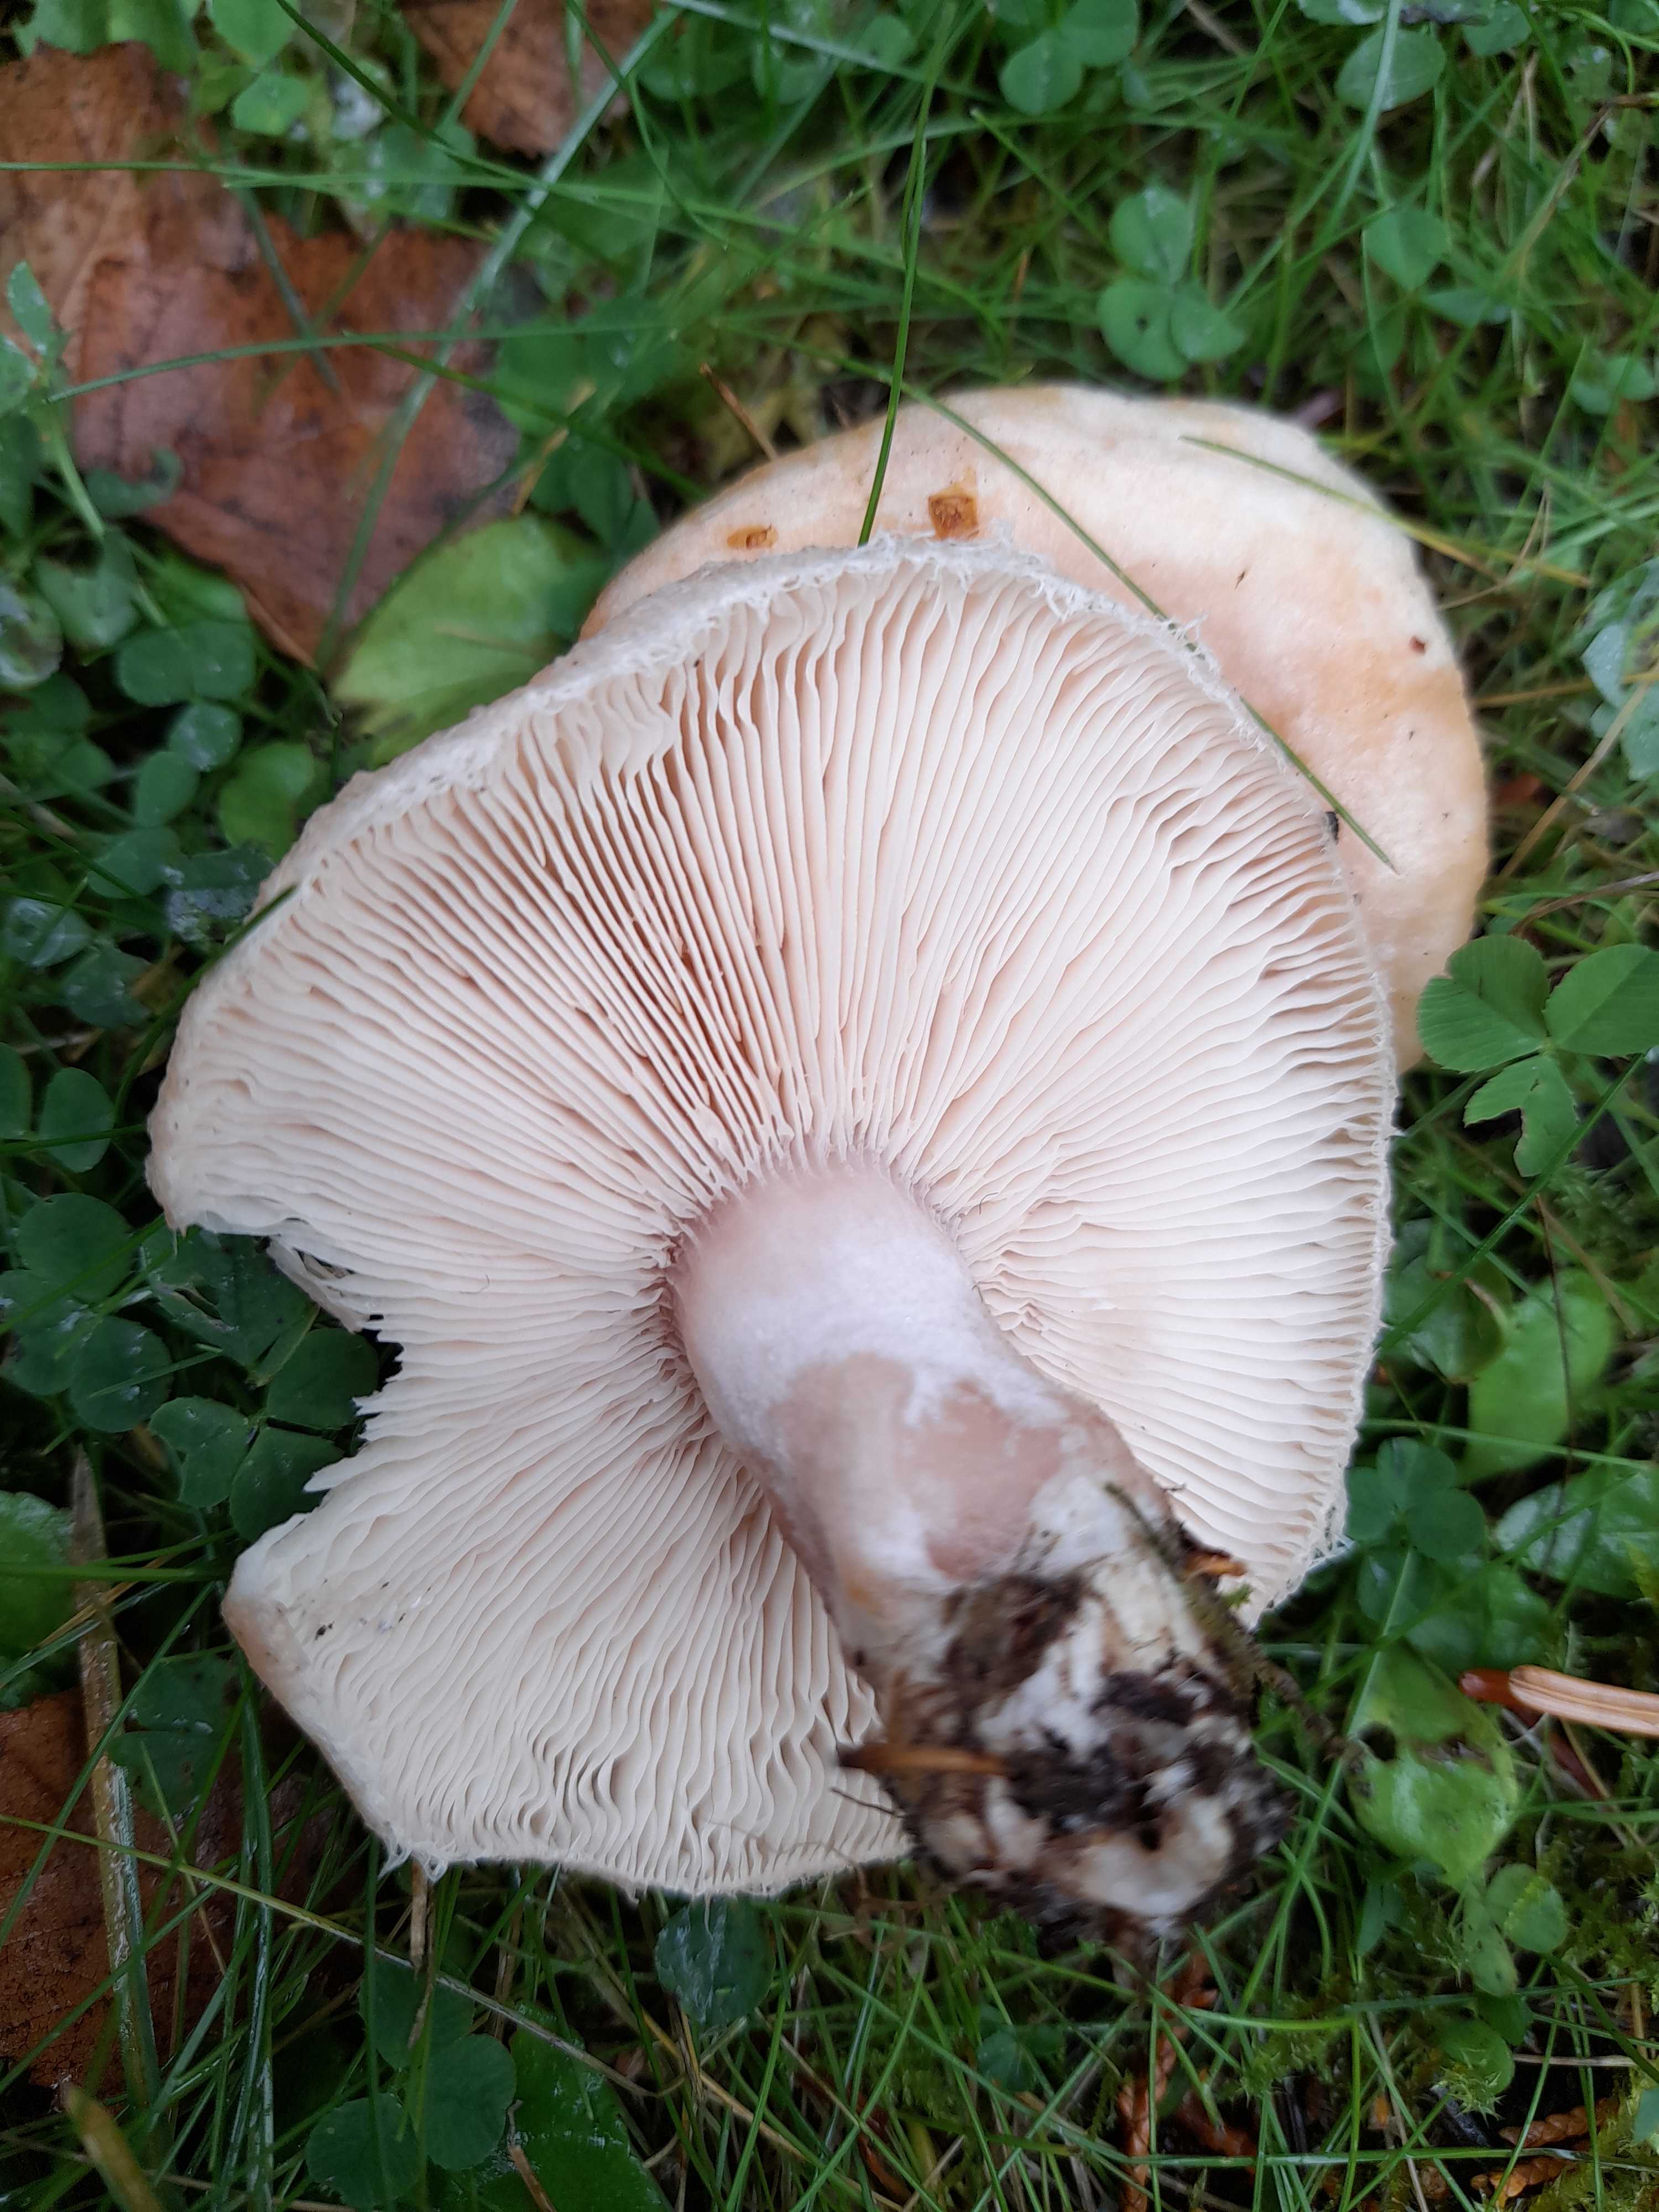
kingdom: Fungi
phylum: Basidiomycota
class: Agaricomycetes
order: Russulales
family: Russulaceae
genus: Lactarius
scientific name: Lactarius pubescens
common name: dunet mælkehat
